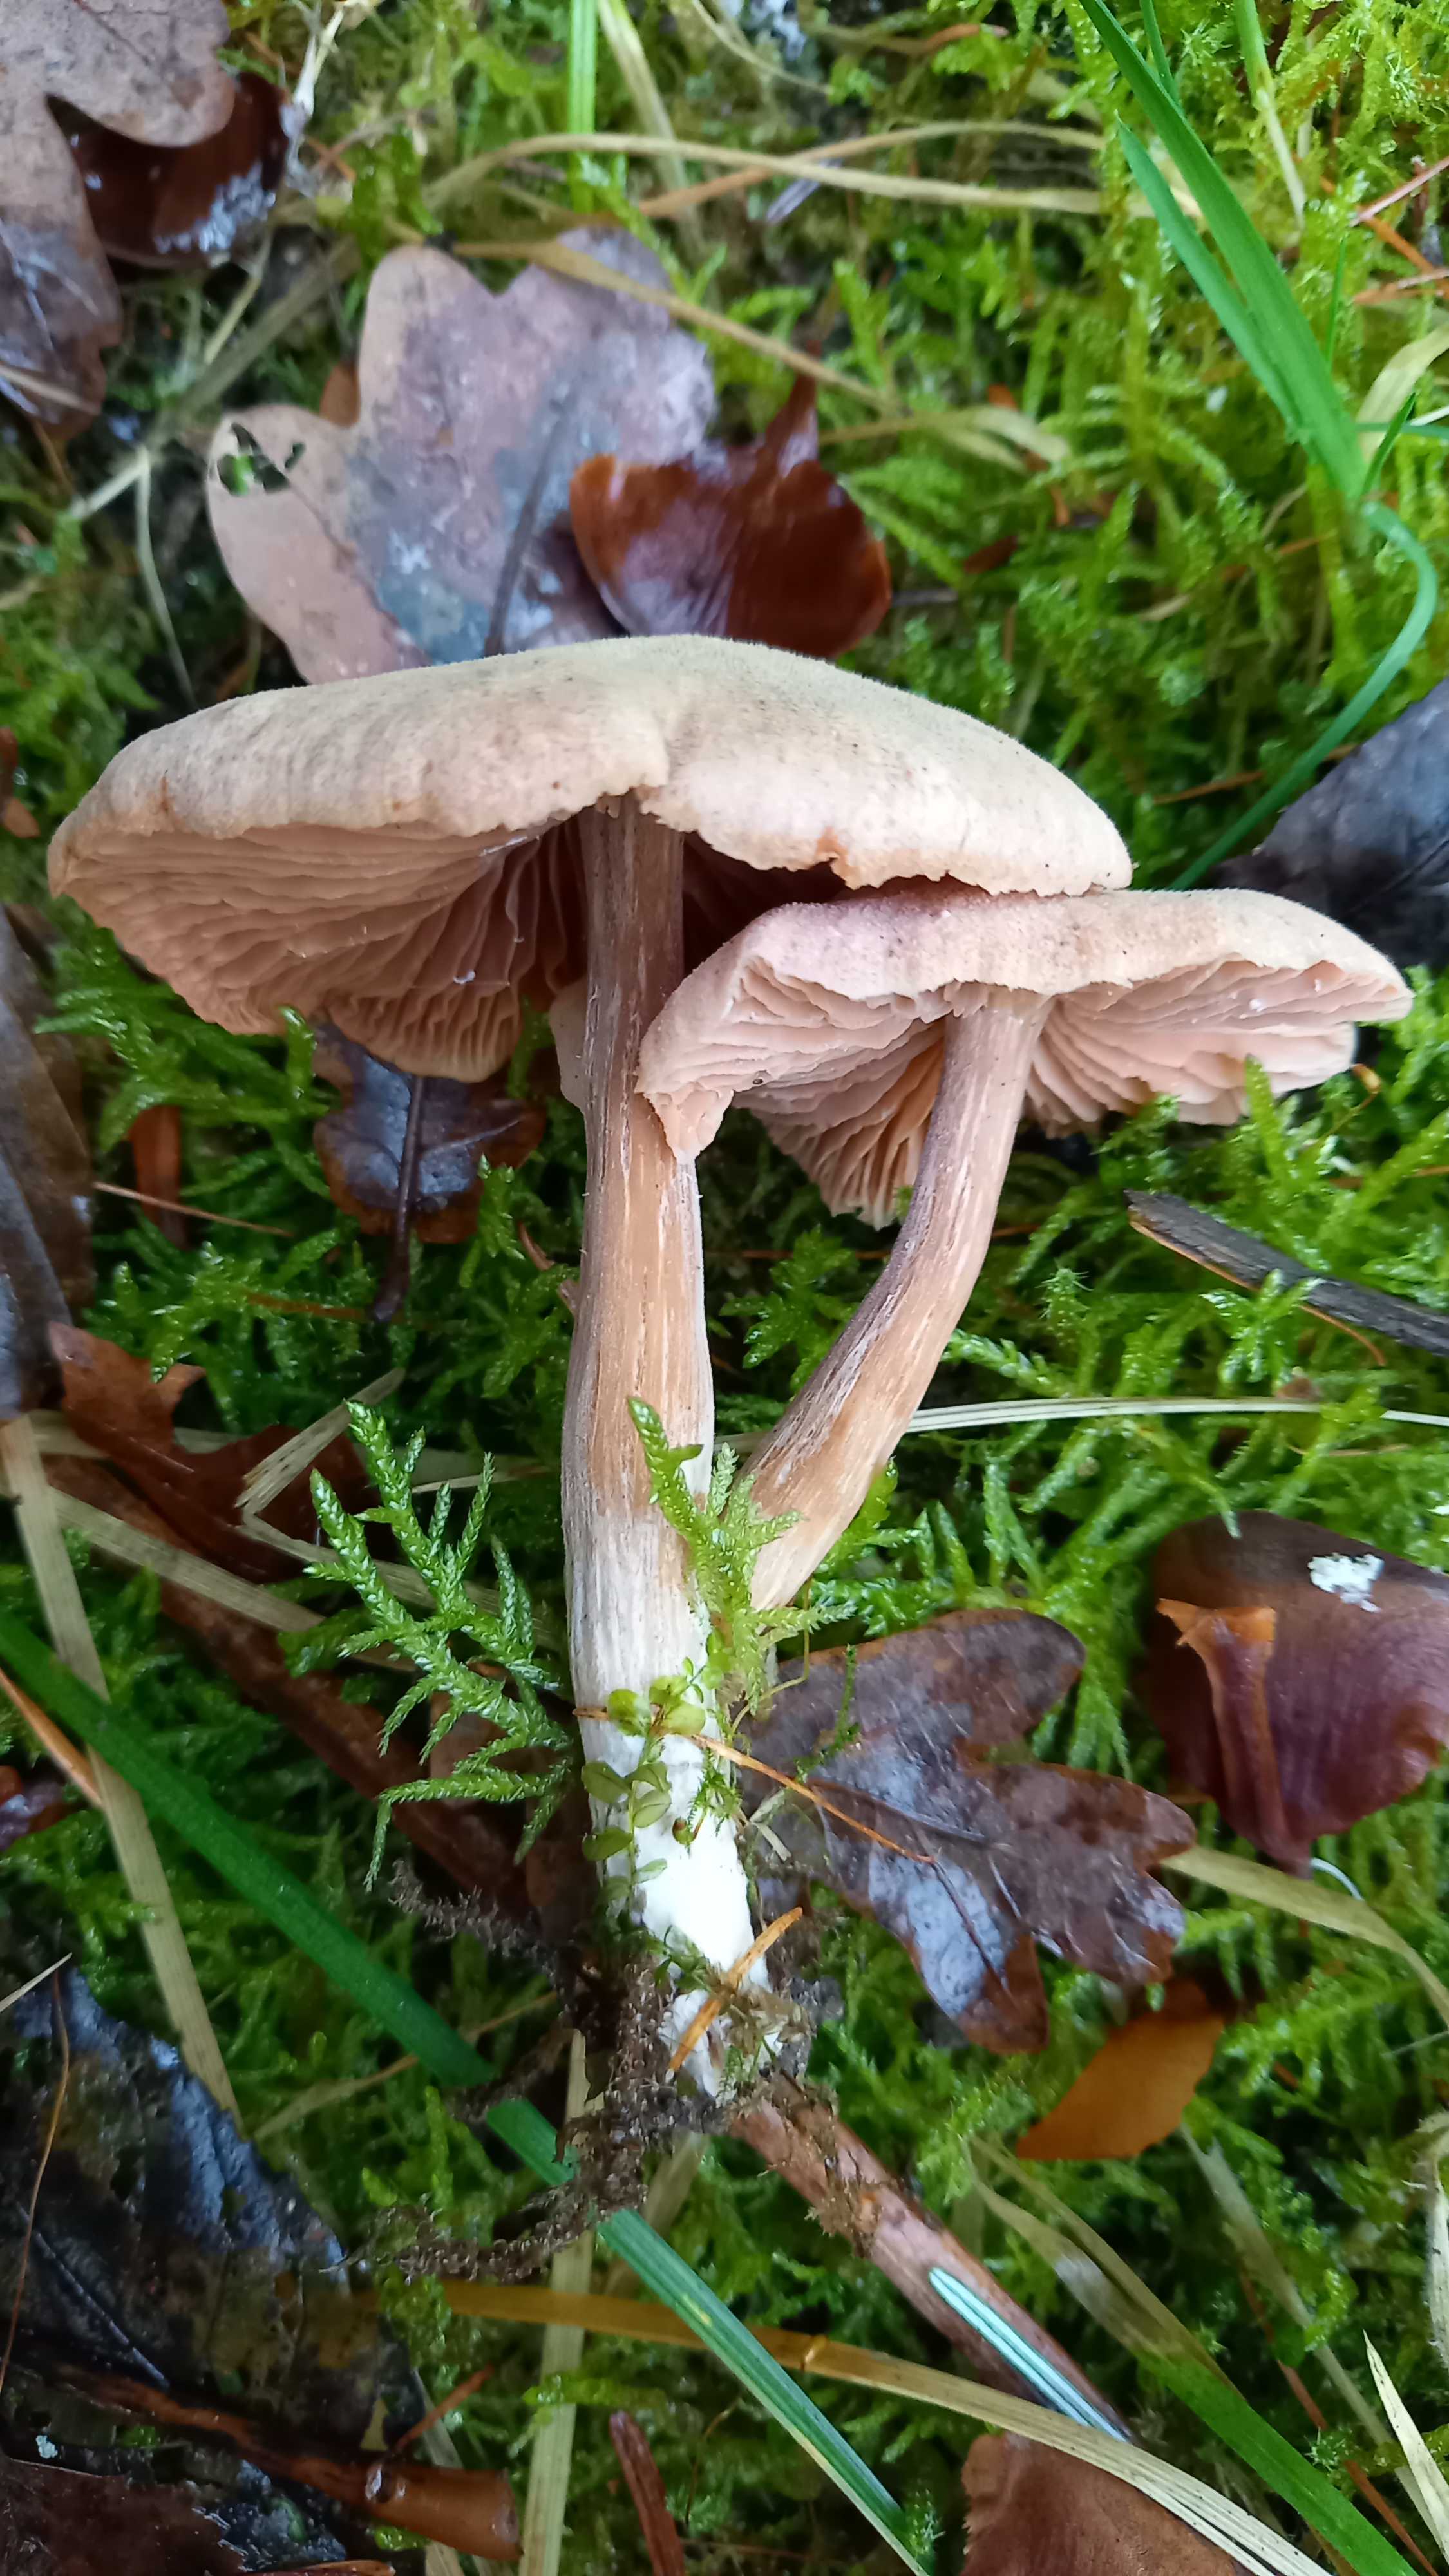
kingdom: Fungi
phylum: Basidiomycota
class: Agaricomycetes
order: Agaricales
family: Hydnangiaceae
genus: Laccaria
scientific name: Laccaria proxima
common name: stor ametysthat
